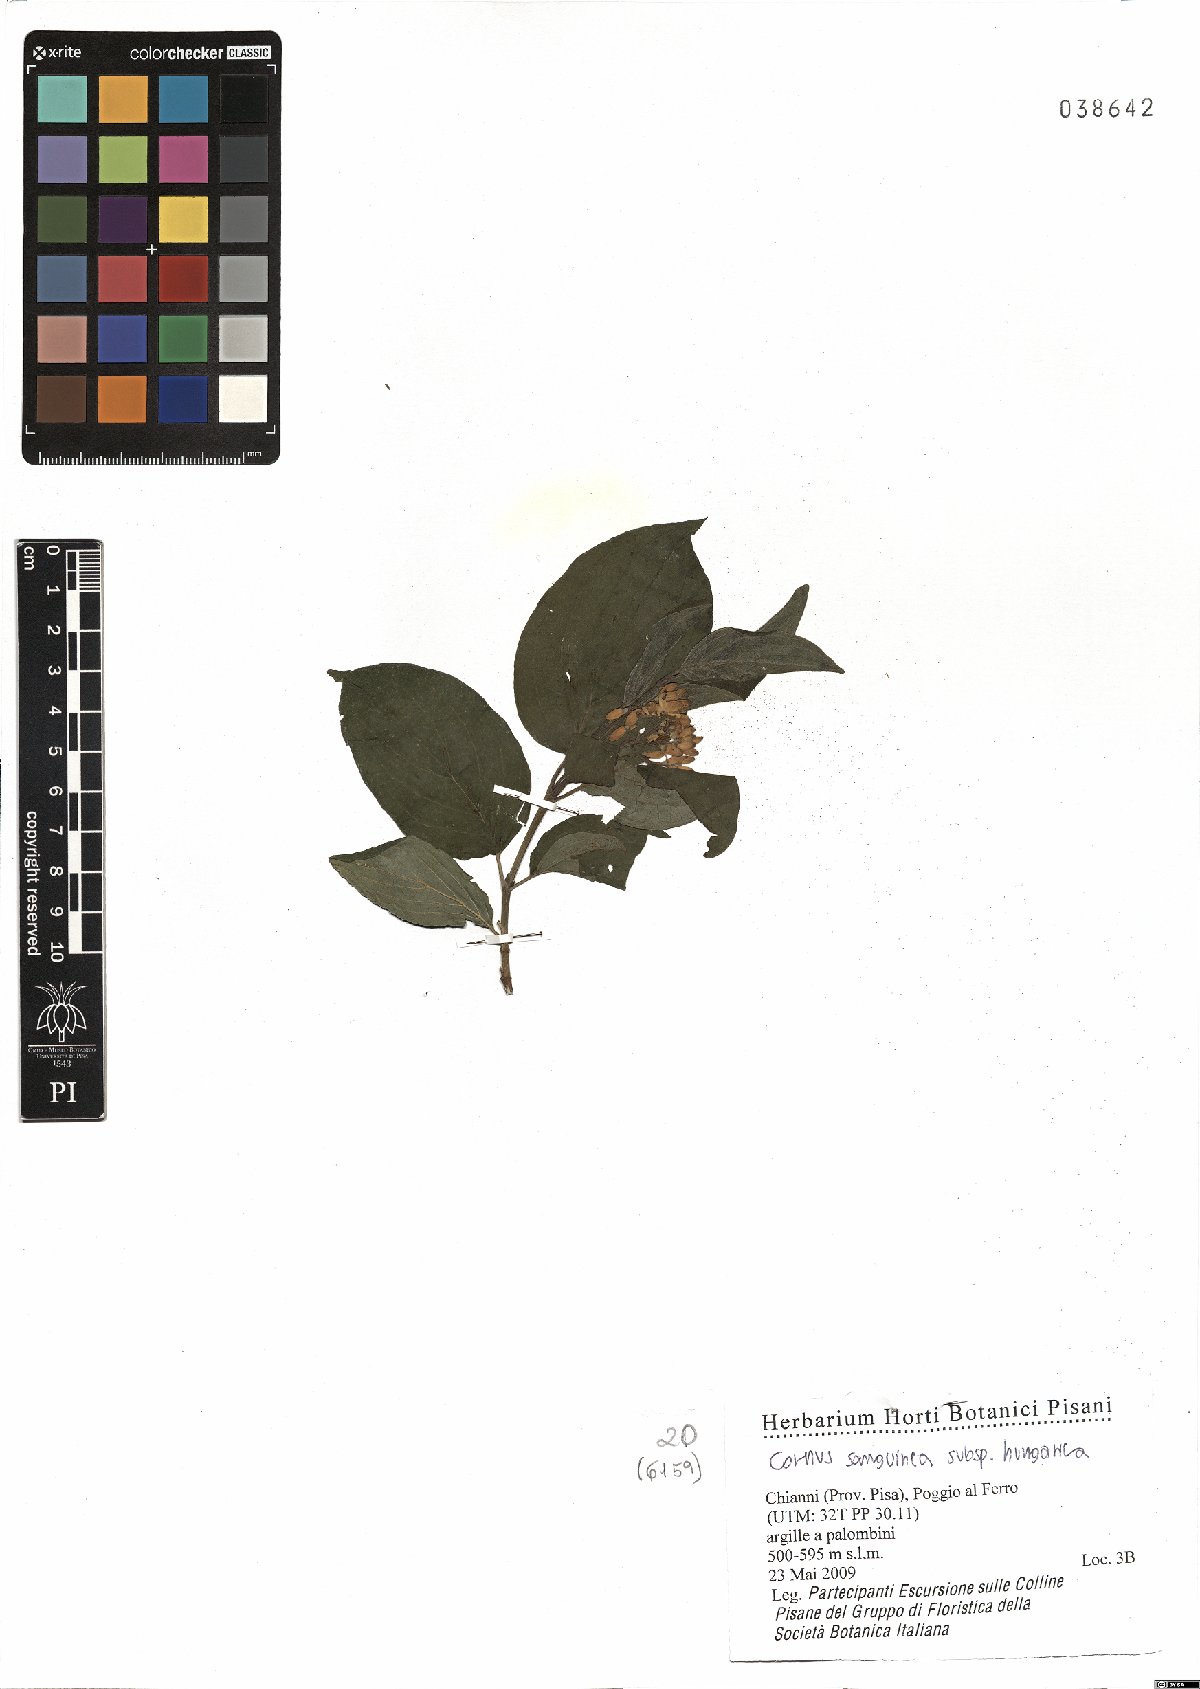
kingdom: Plantae
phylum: Tracheophyta
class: Magnoliopsida
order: Cornales
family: Cornaceae
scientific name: Cornaceae
